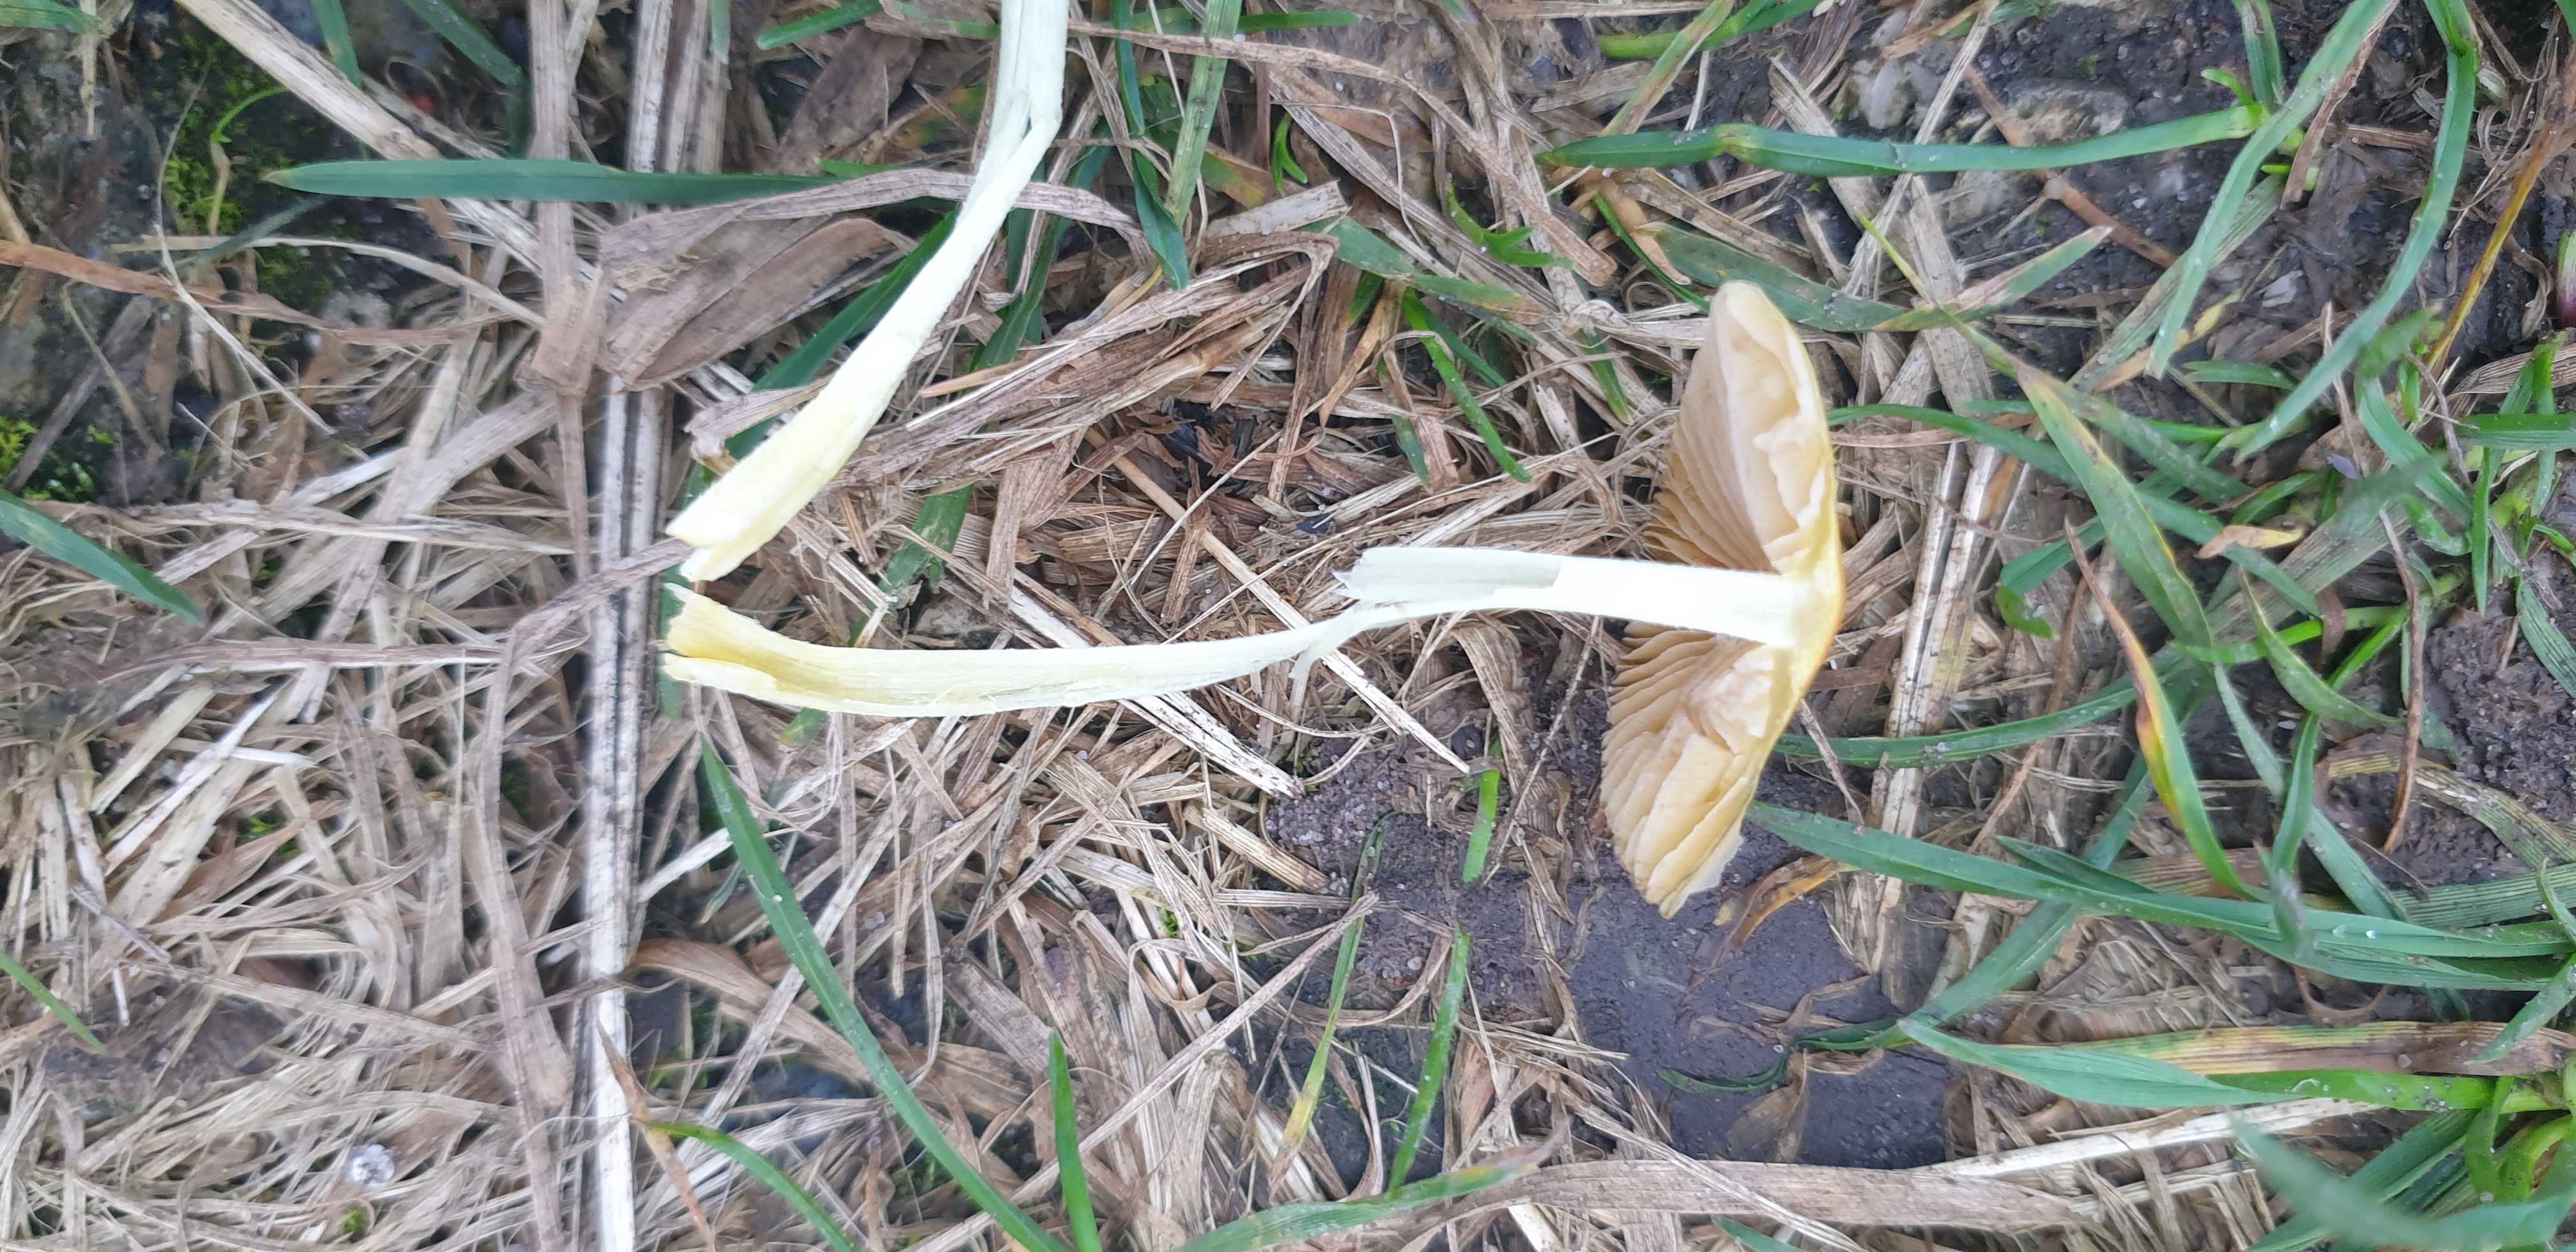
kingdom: Fungi
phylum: Basidiomycota
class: Agaricomycetes
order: Agaricales
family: Bolbitiaceae
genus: Bolbitius
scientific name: Bolbitius titubans
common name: almindelig gulhat
